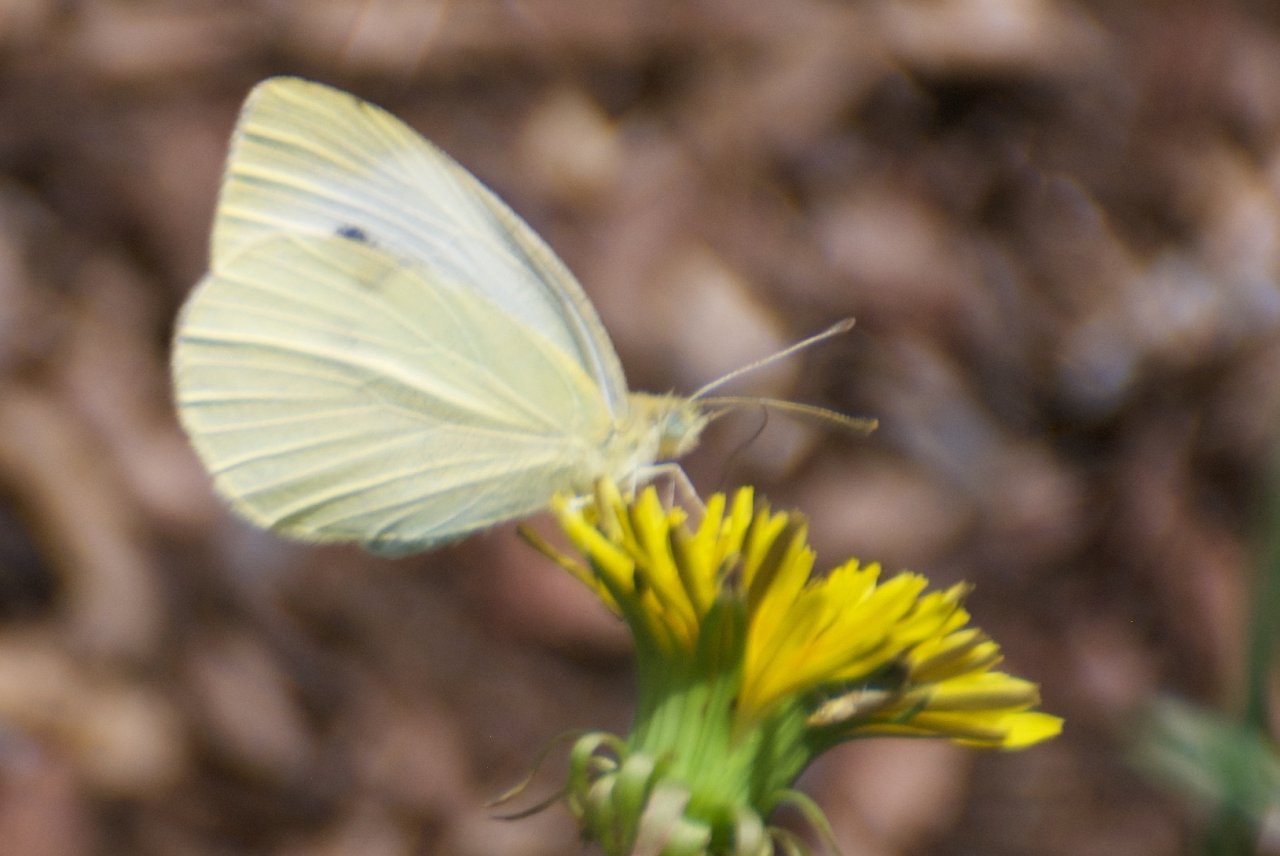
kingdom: Animalia
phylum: Arthropoda
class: Insecta
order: Lepidoptera
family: Pieridae
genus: Pieris
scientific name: Pieris rapae
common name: Cabbage White
